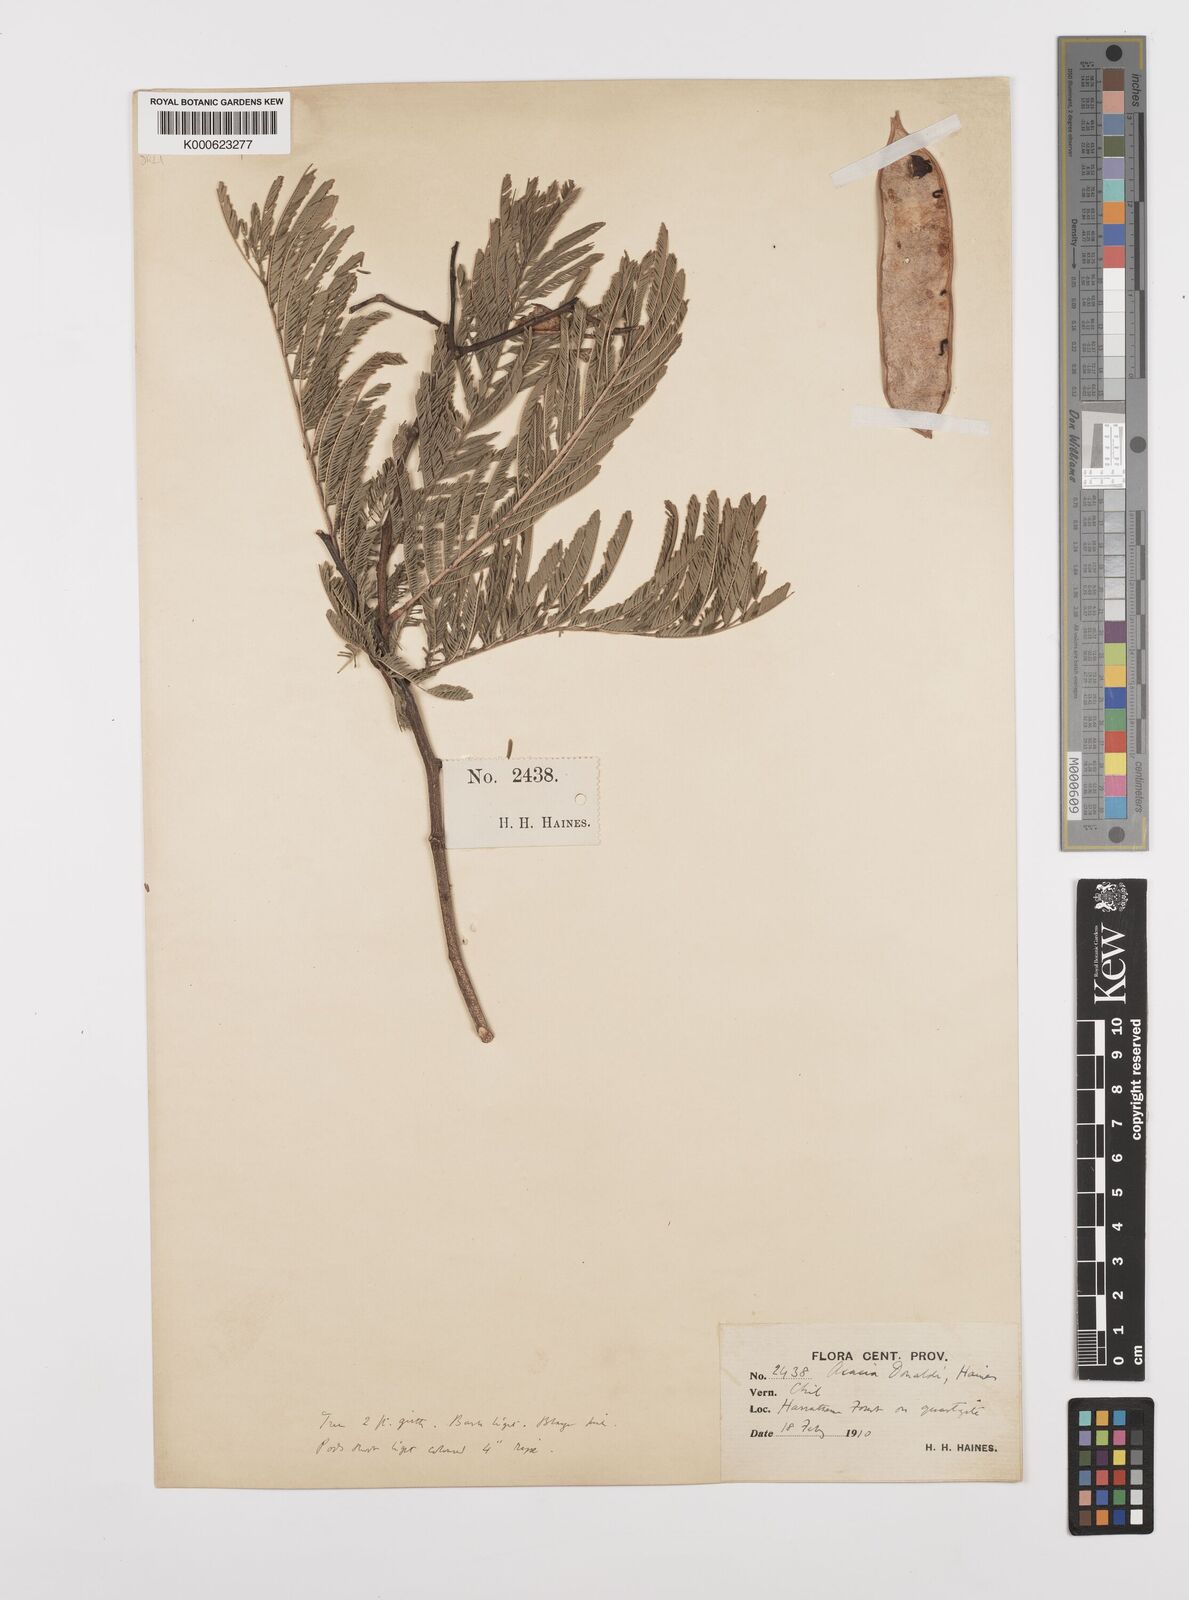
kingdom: Plantae
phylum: Tracheophyta
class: Magnoliopsida
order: Fabales
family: Fabaceae
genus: Senegalia
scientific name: Senegalia donaldi
